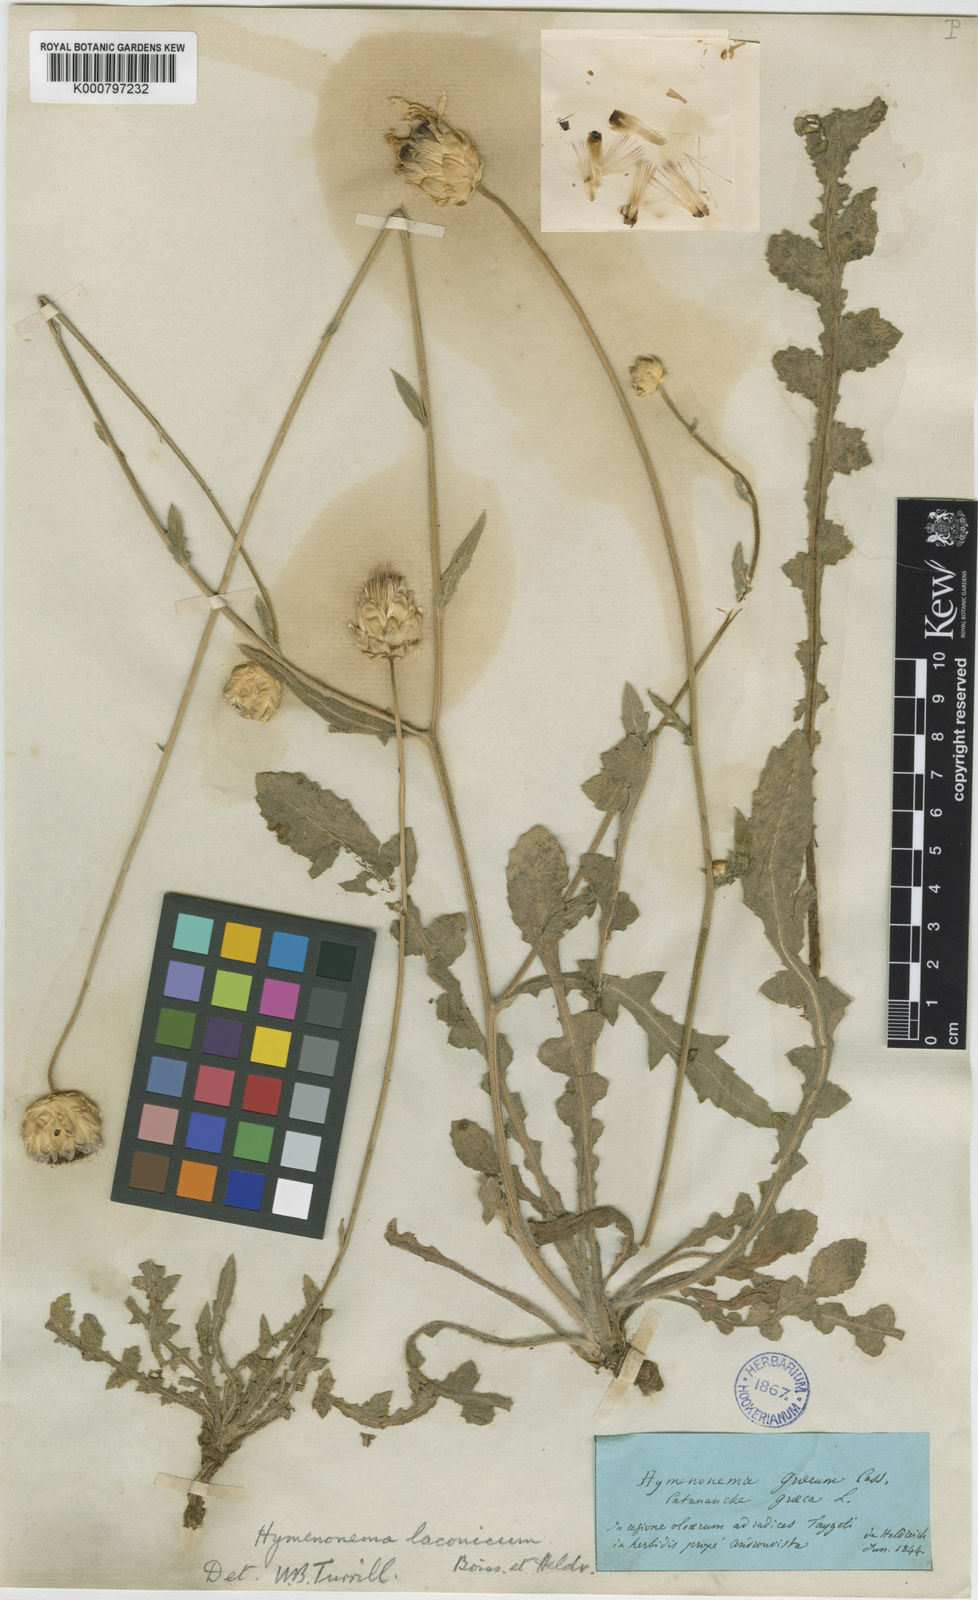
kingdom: Plantae
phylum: Tracheophyta
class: Magnoliopsida
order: Asterales
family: Asteraceae
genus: Hymenonema
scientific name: Hymenonema laconicum
